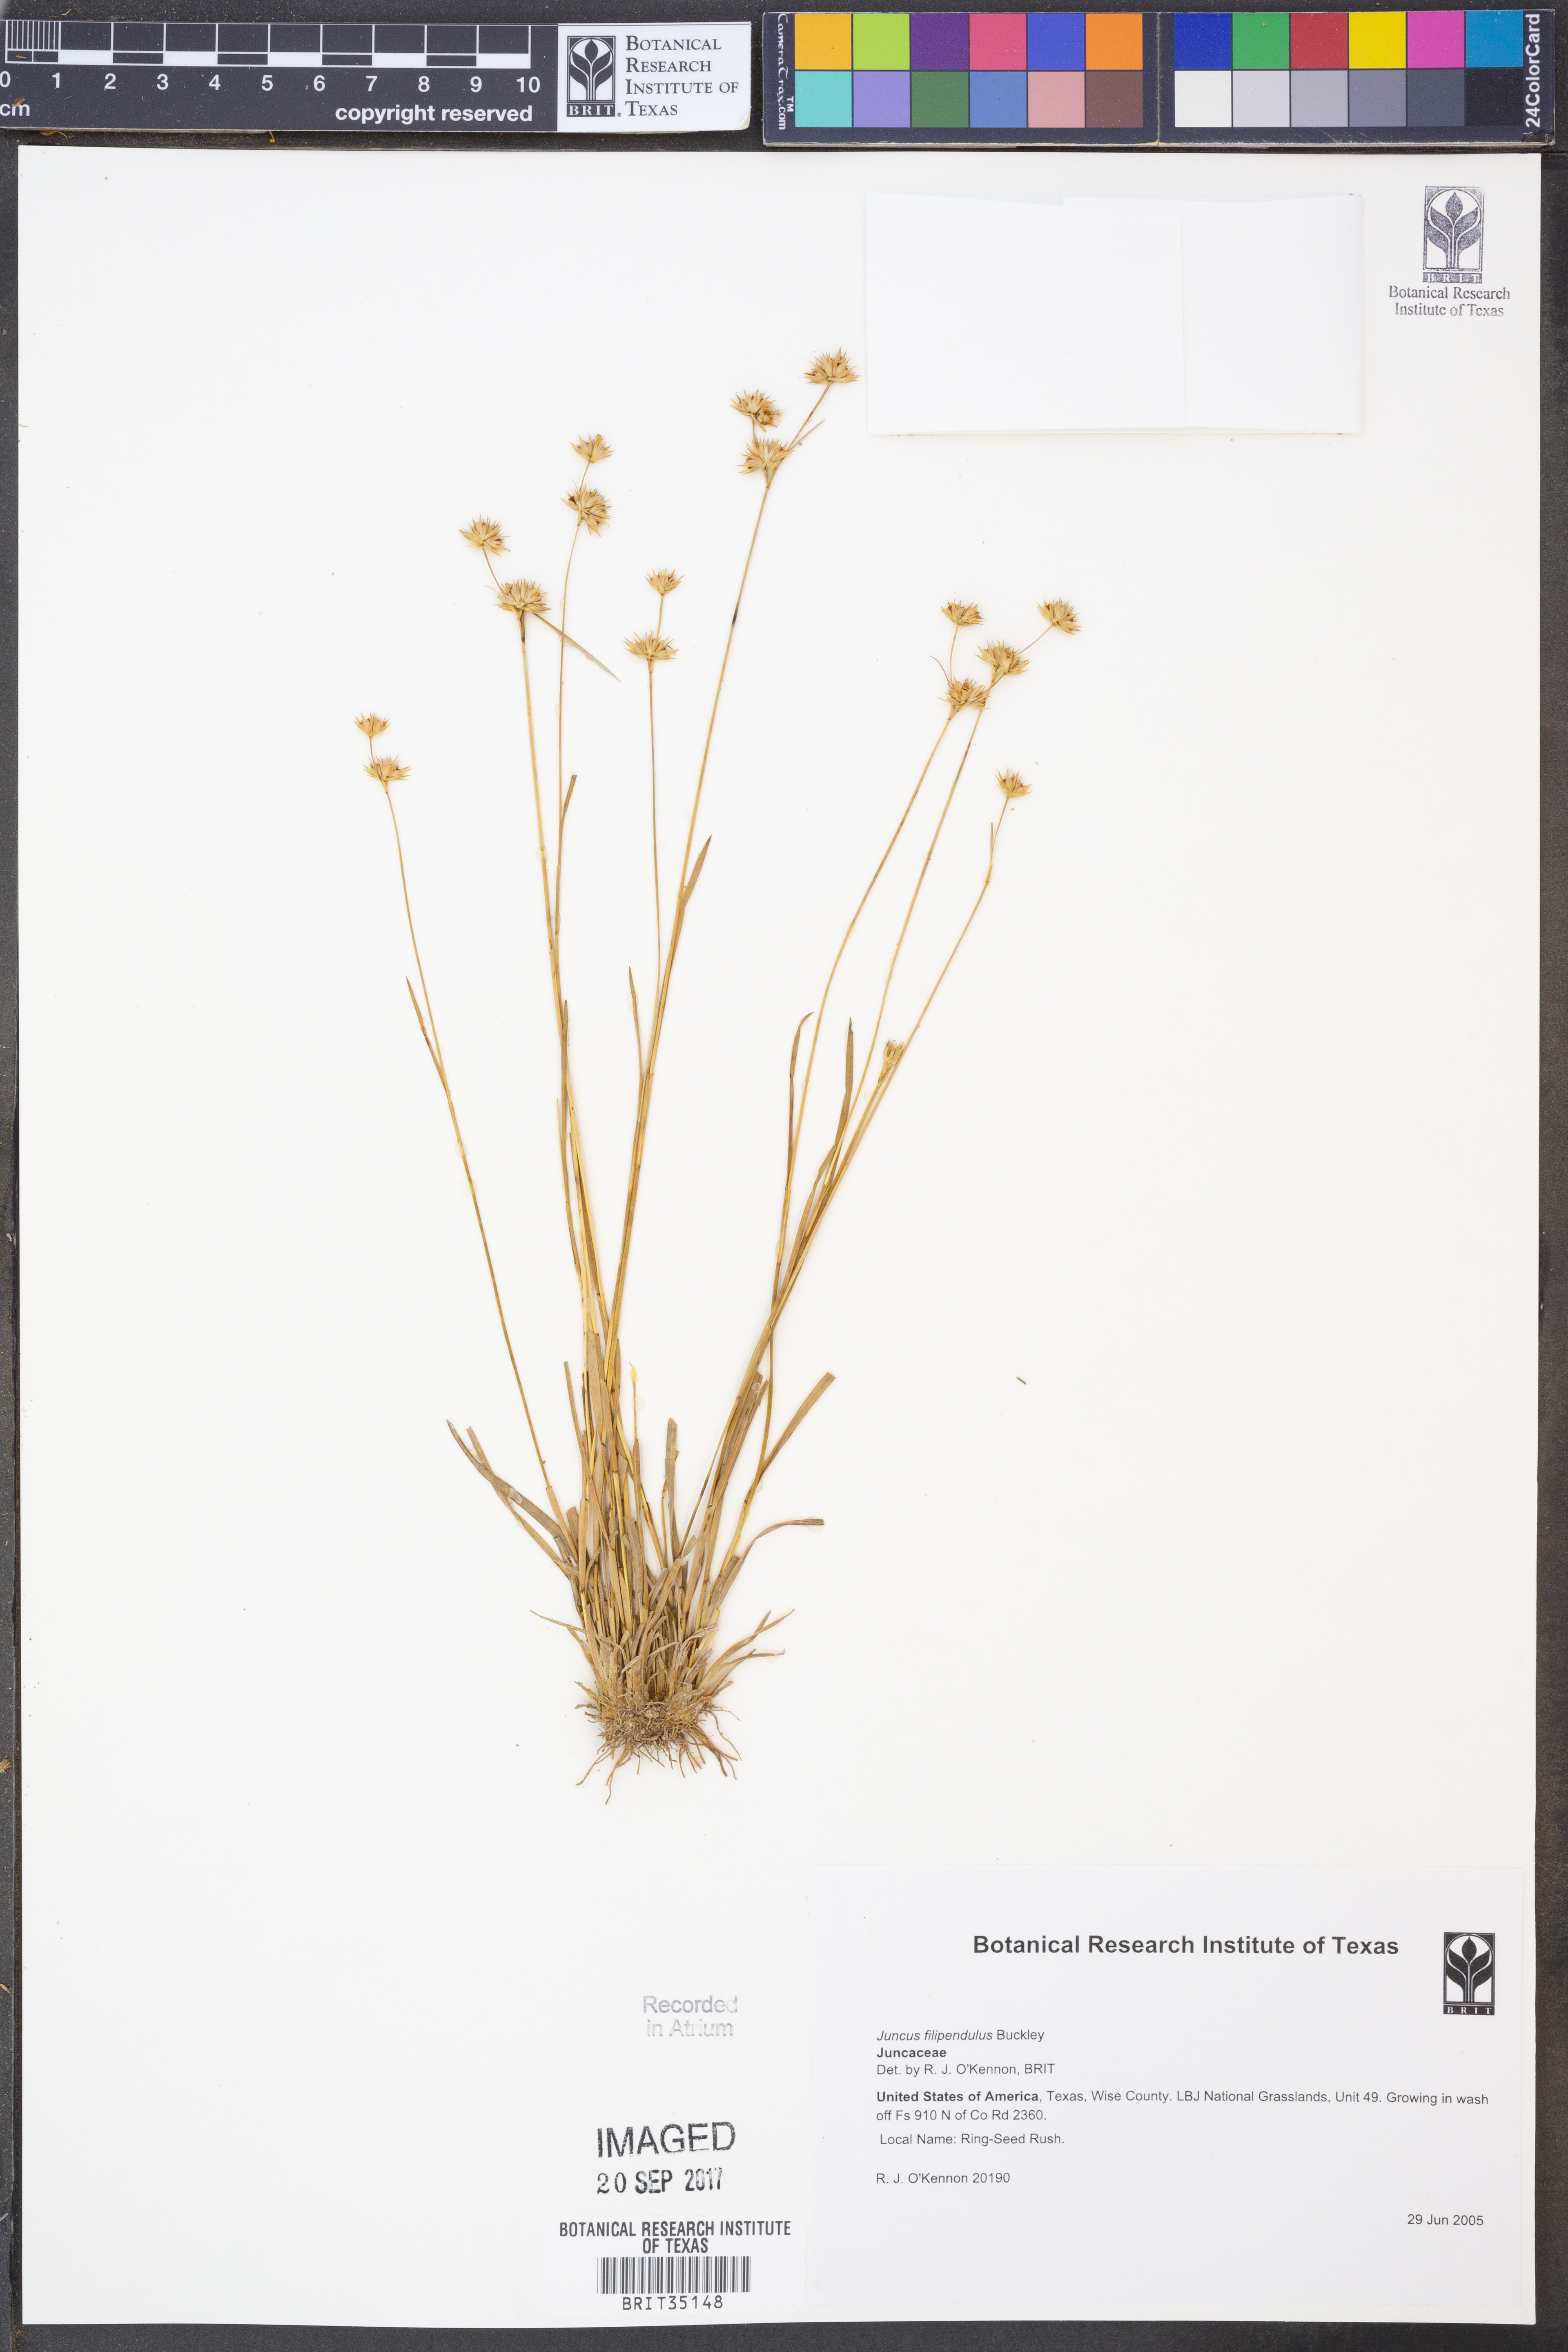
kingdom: Plantae
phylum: Tracheophyta
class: Liliopsida
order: Poales
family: Juncaceae
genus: Juncus
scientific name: Juncus filipendulus
